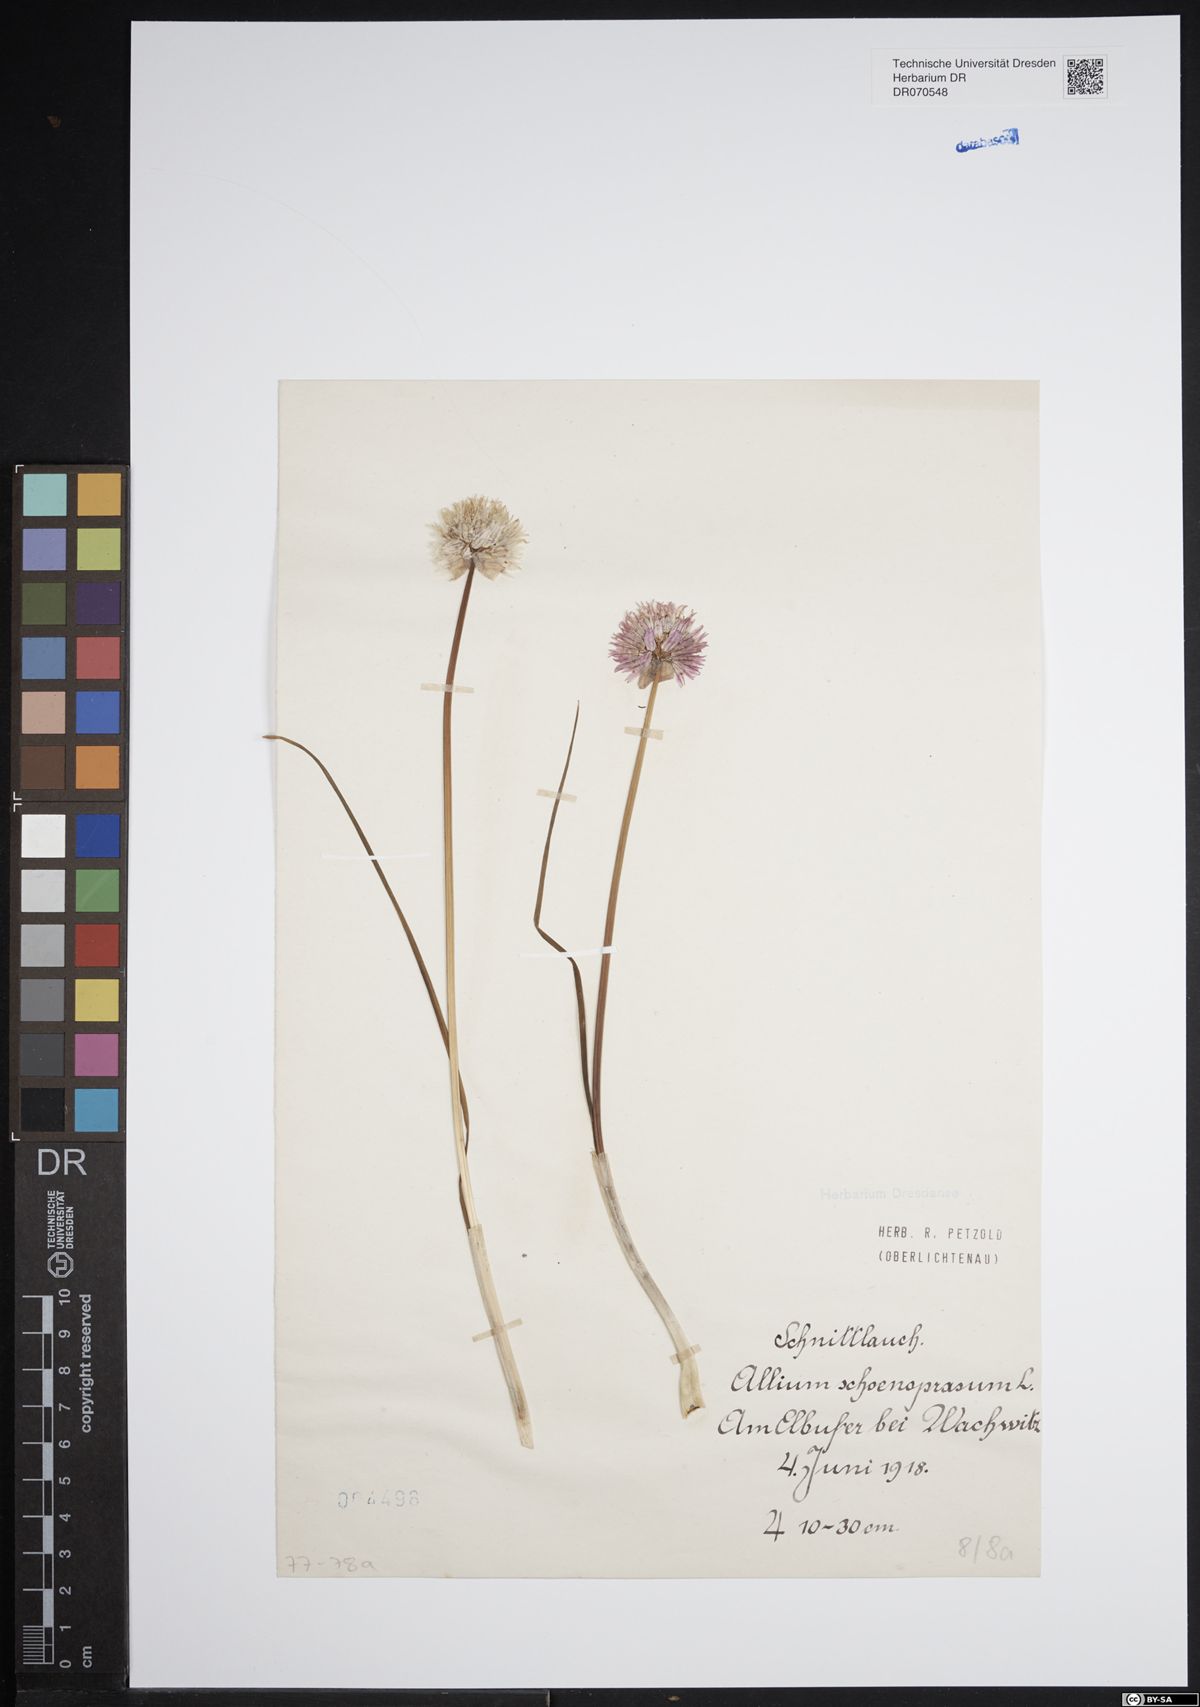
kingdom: Plantae
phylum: Tracheophyta
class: Liliopsida
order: Asparagales
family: Amaryllidaceae
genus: Allium
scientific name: Allium schoenoprasum
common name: Chives
